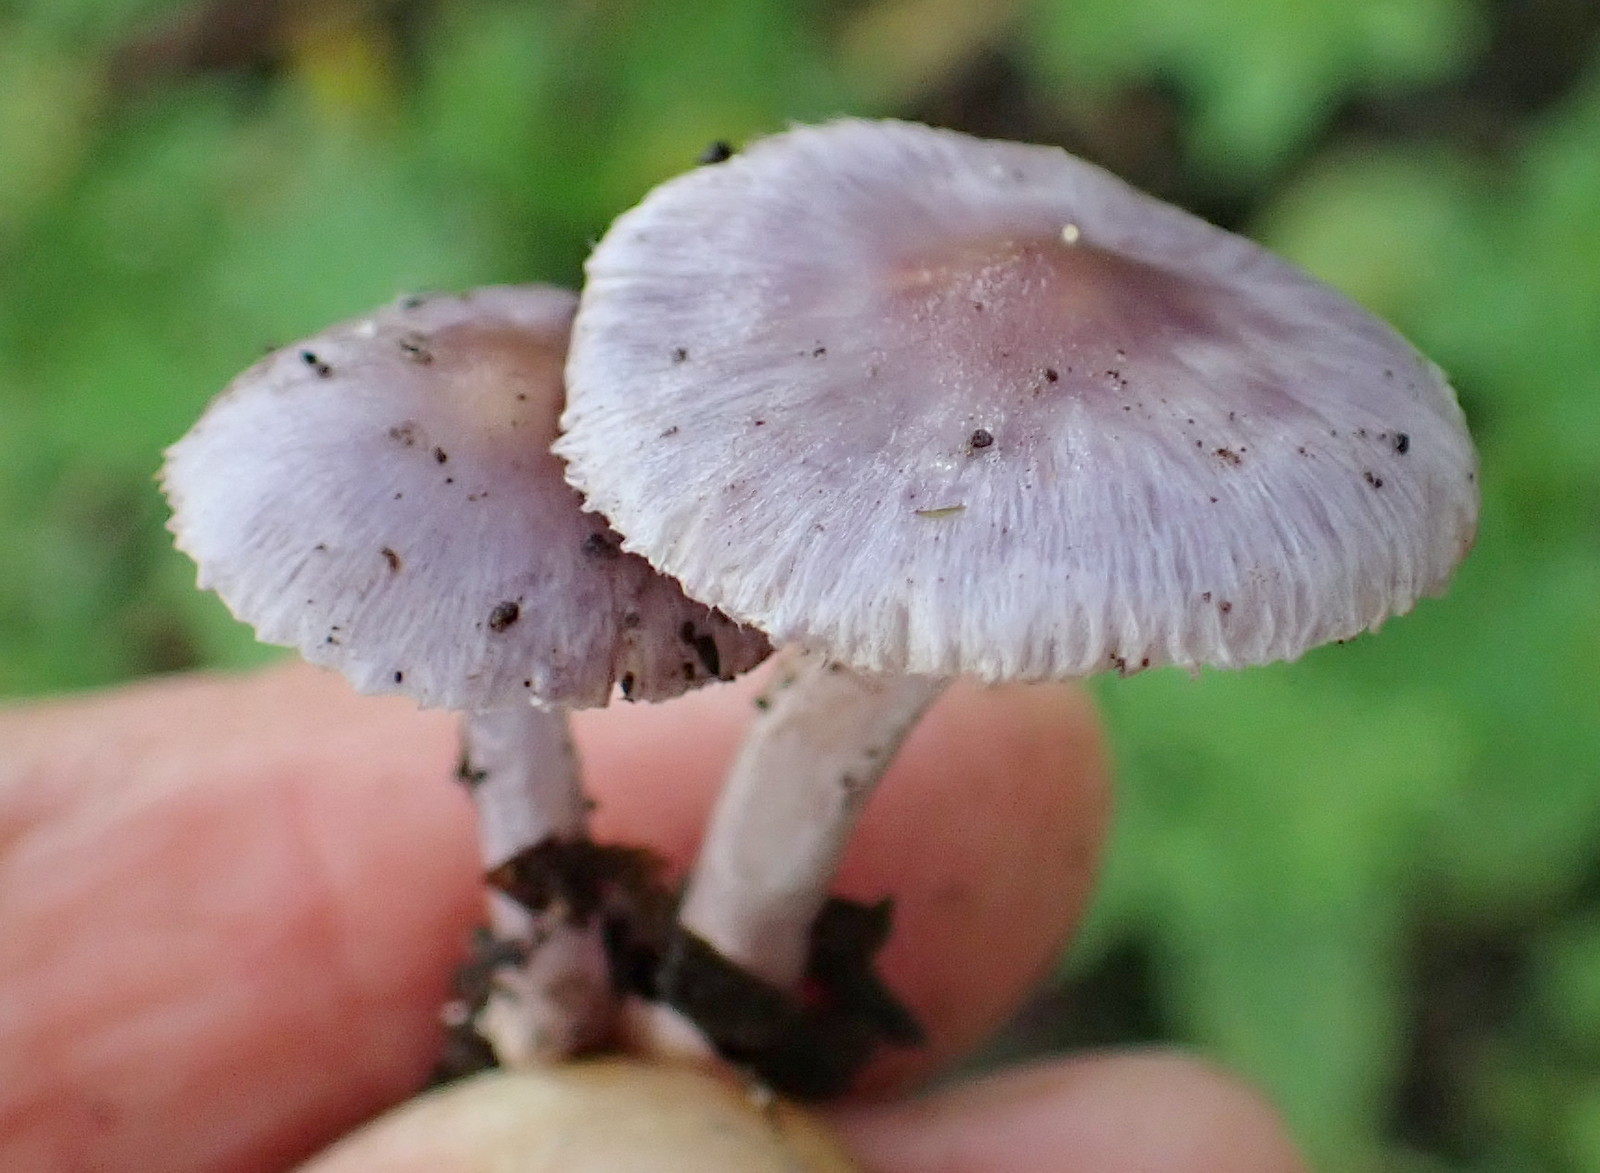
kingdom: Fungi
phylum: Basidiomycota
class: Agaricomycetes
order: Agaricales
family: Inocybaceae
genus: Inocybe
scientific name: Inocybe ionolepis
